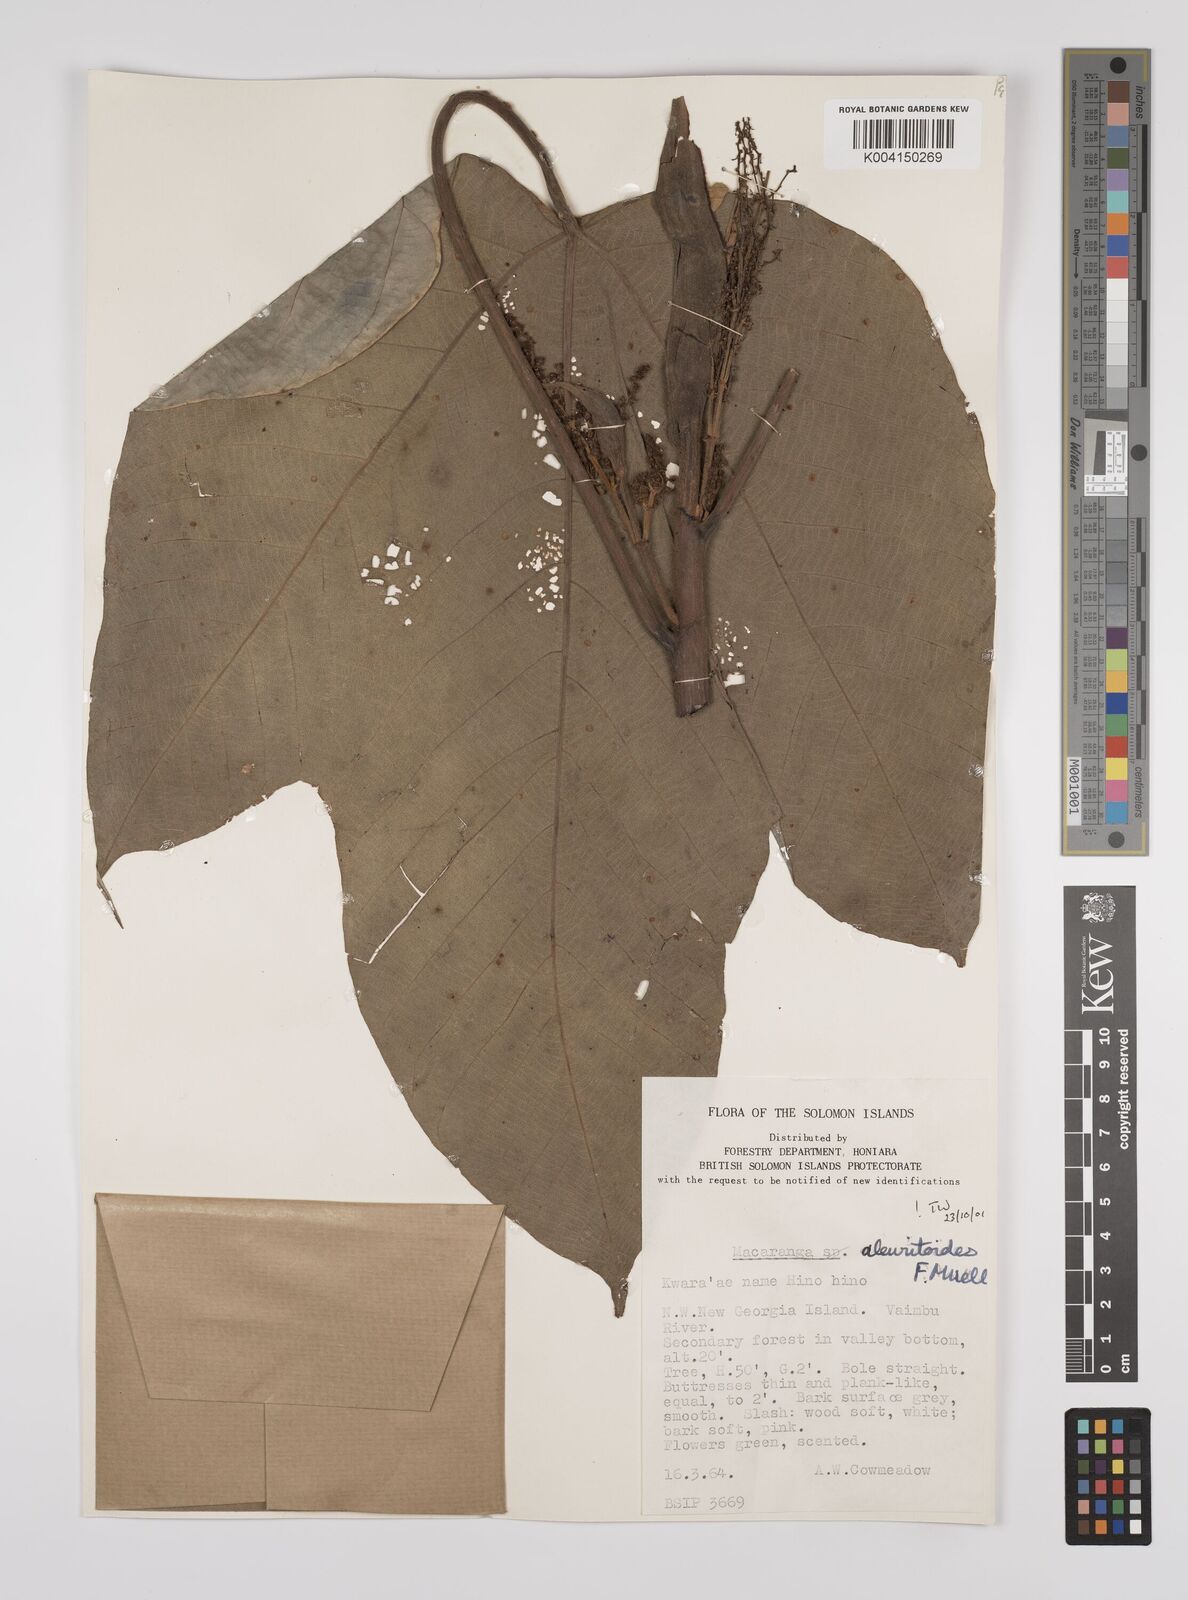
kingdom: Plantae
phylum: Tracheophyta
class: Magnoliopsida
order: Malpighiales
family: Euphorbiaceae
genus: Macaranga
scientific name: Macaranga aleuritoides
